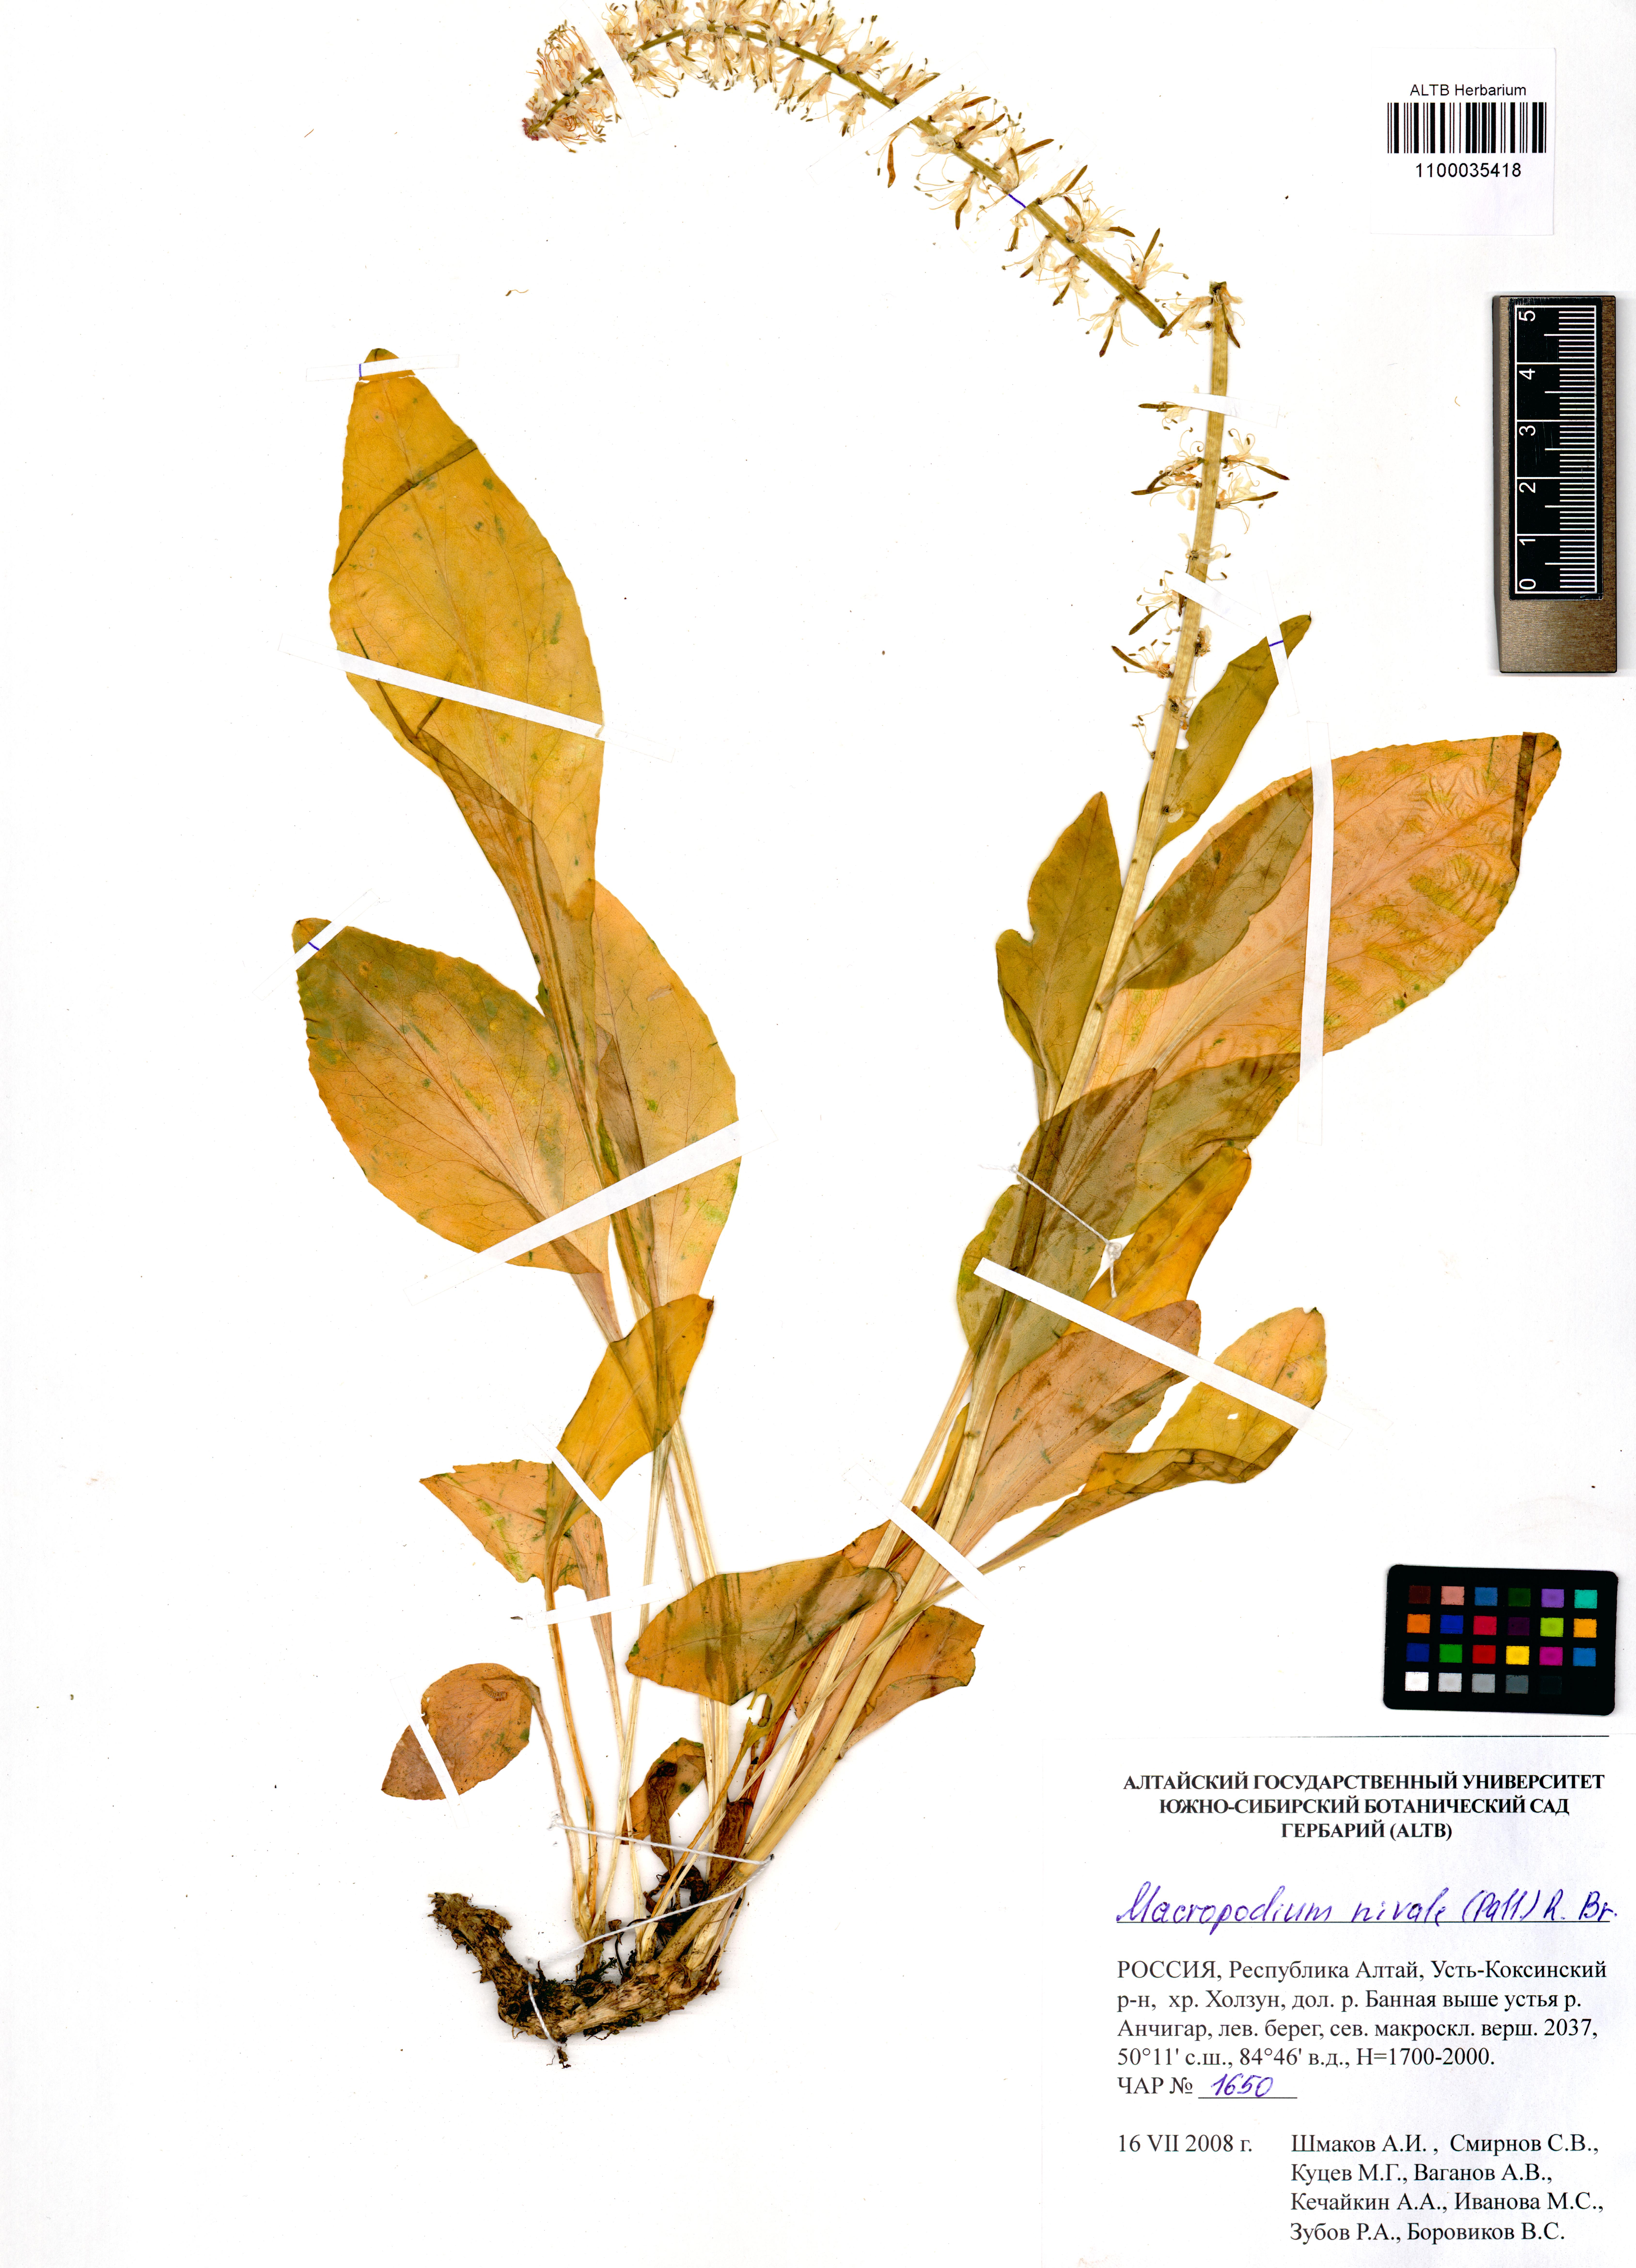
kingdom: Plantae
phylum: Tracheophyta
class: Magnoliopsida
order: Brassicales
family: Brassicaceae
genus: Macropodium
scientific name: Macropodium nivale
